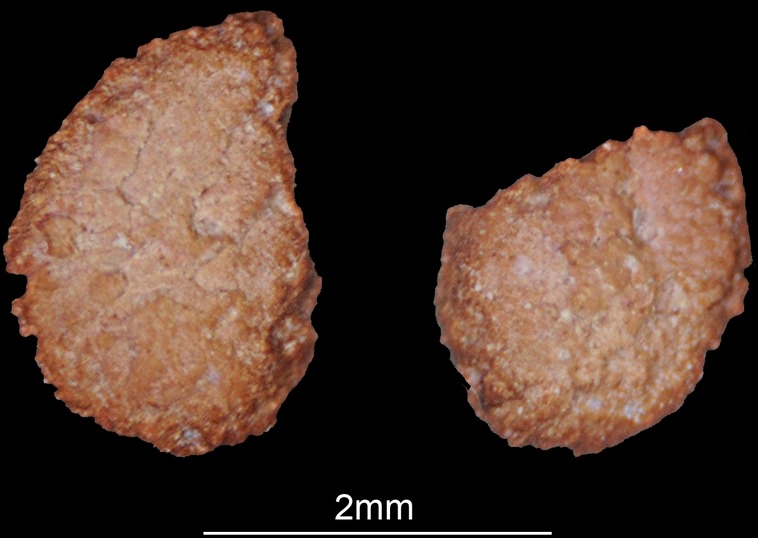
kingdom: Animalia
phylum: Chordata
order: Polypteriformes
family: Polypteridae
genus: Polypterus
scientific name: Polypterus senegalus
